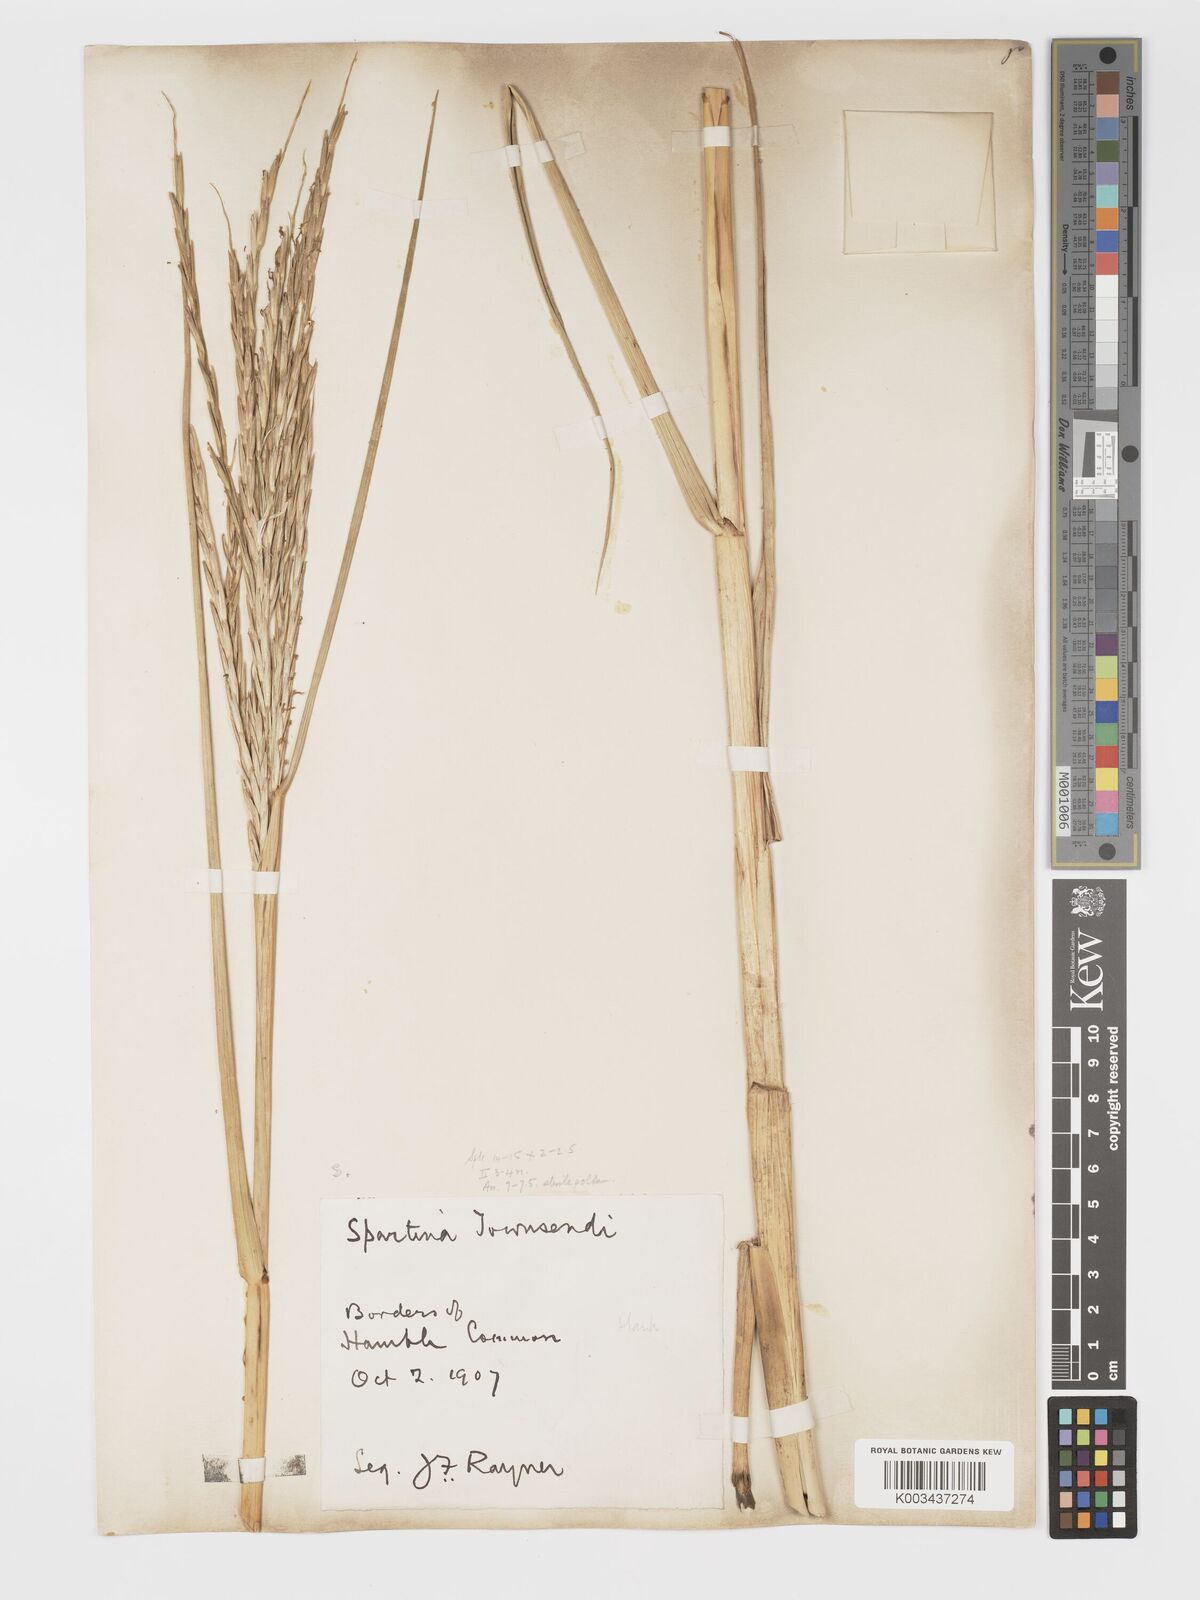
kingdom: Plantae
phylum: Tracheophyta
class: Liliopsida
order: Poales
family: Poaceae
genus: Sporobolus
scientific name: Sporobolus townsendii
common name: Townsend's cordgrass
